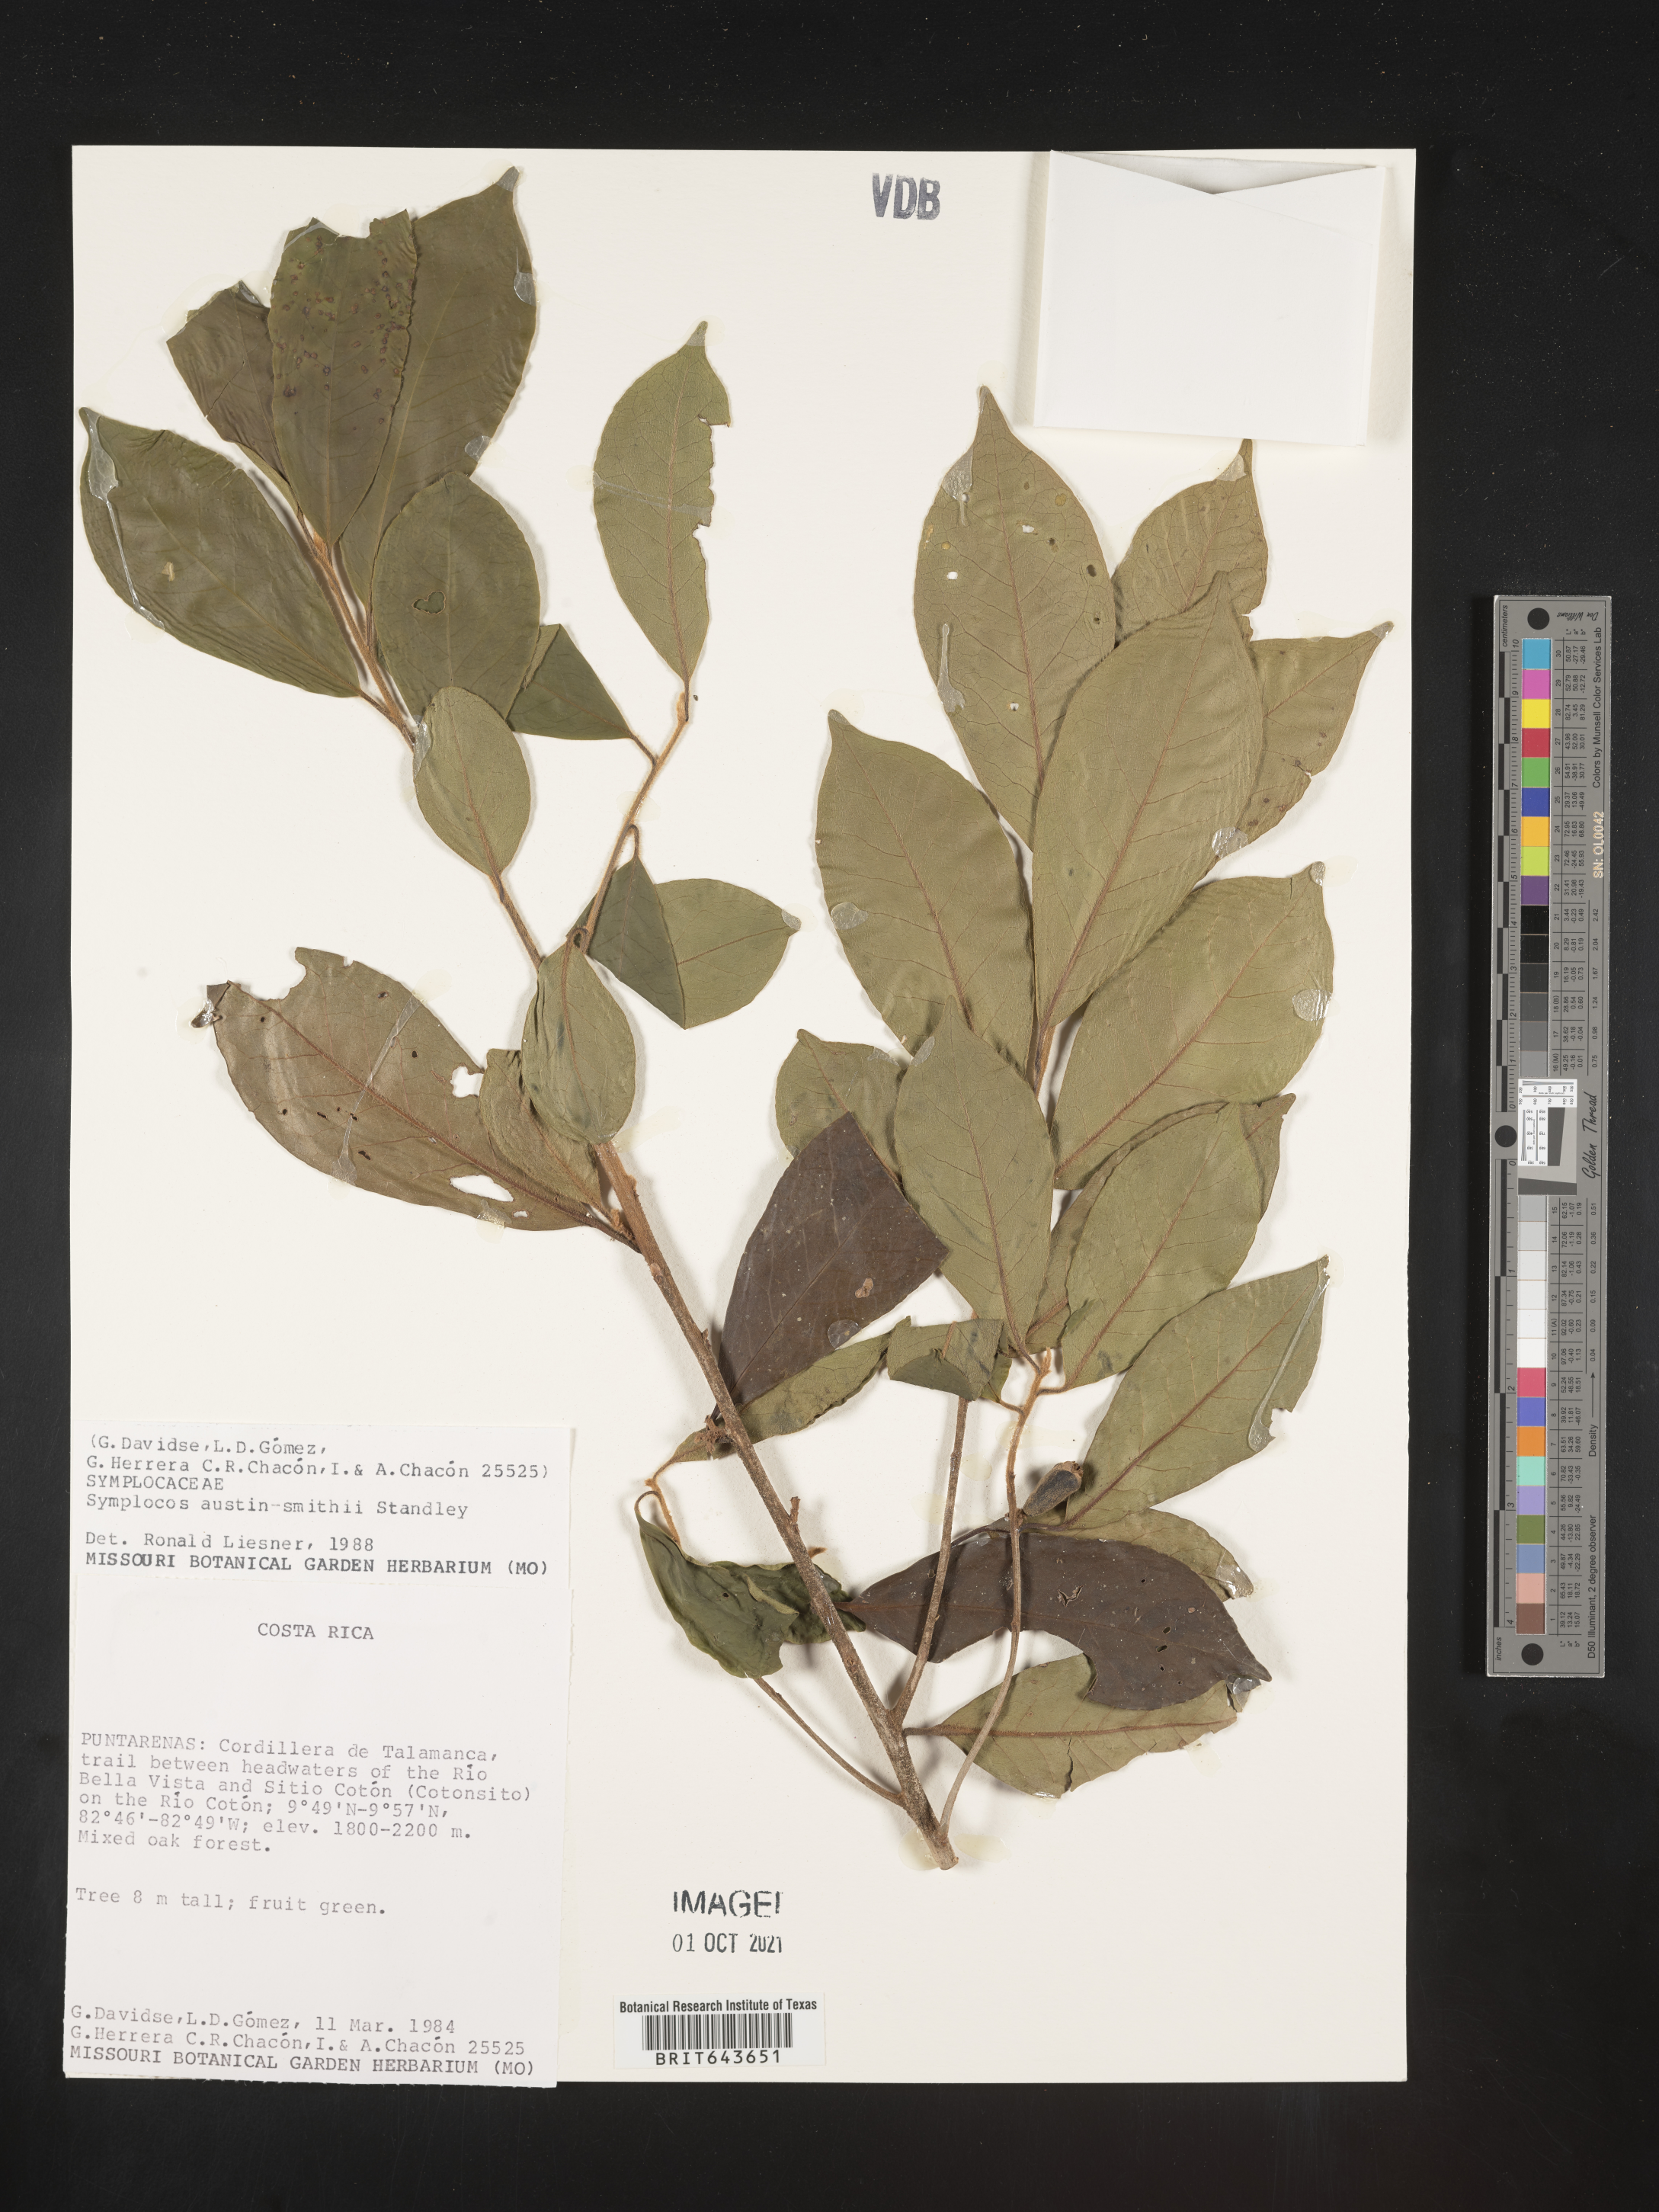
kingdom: Plantae
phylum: Tracheophyta
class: Magnoliopsida
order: Ericales
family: Symplocaceae
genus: Symplocos
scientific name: Symplocos
